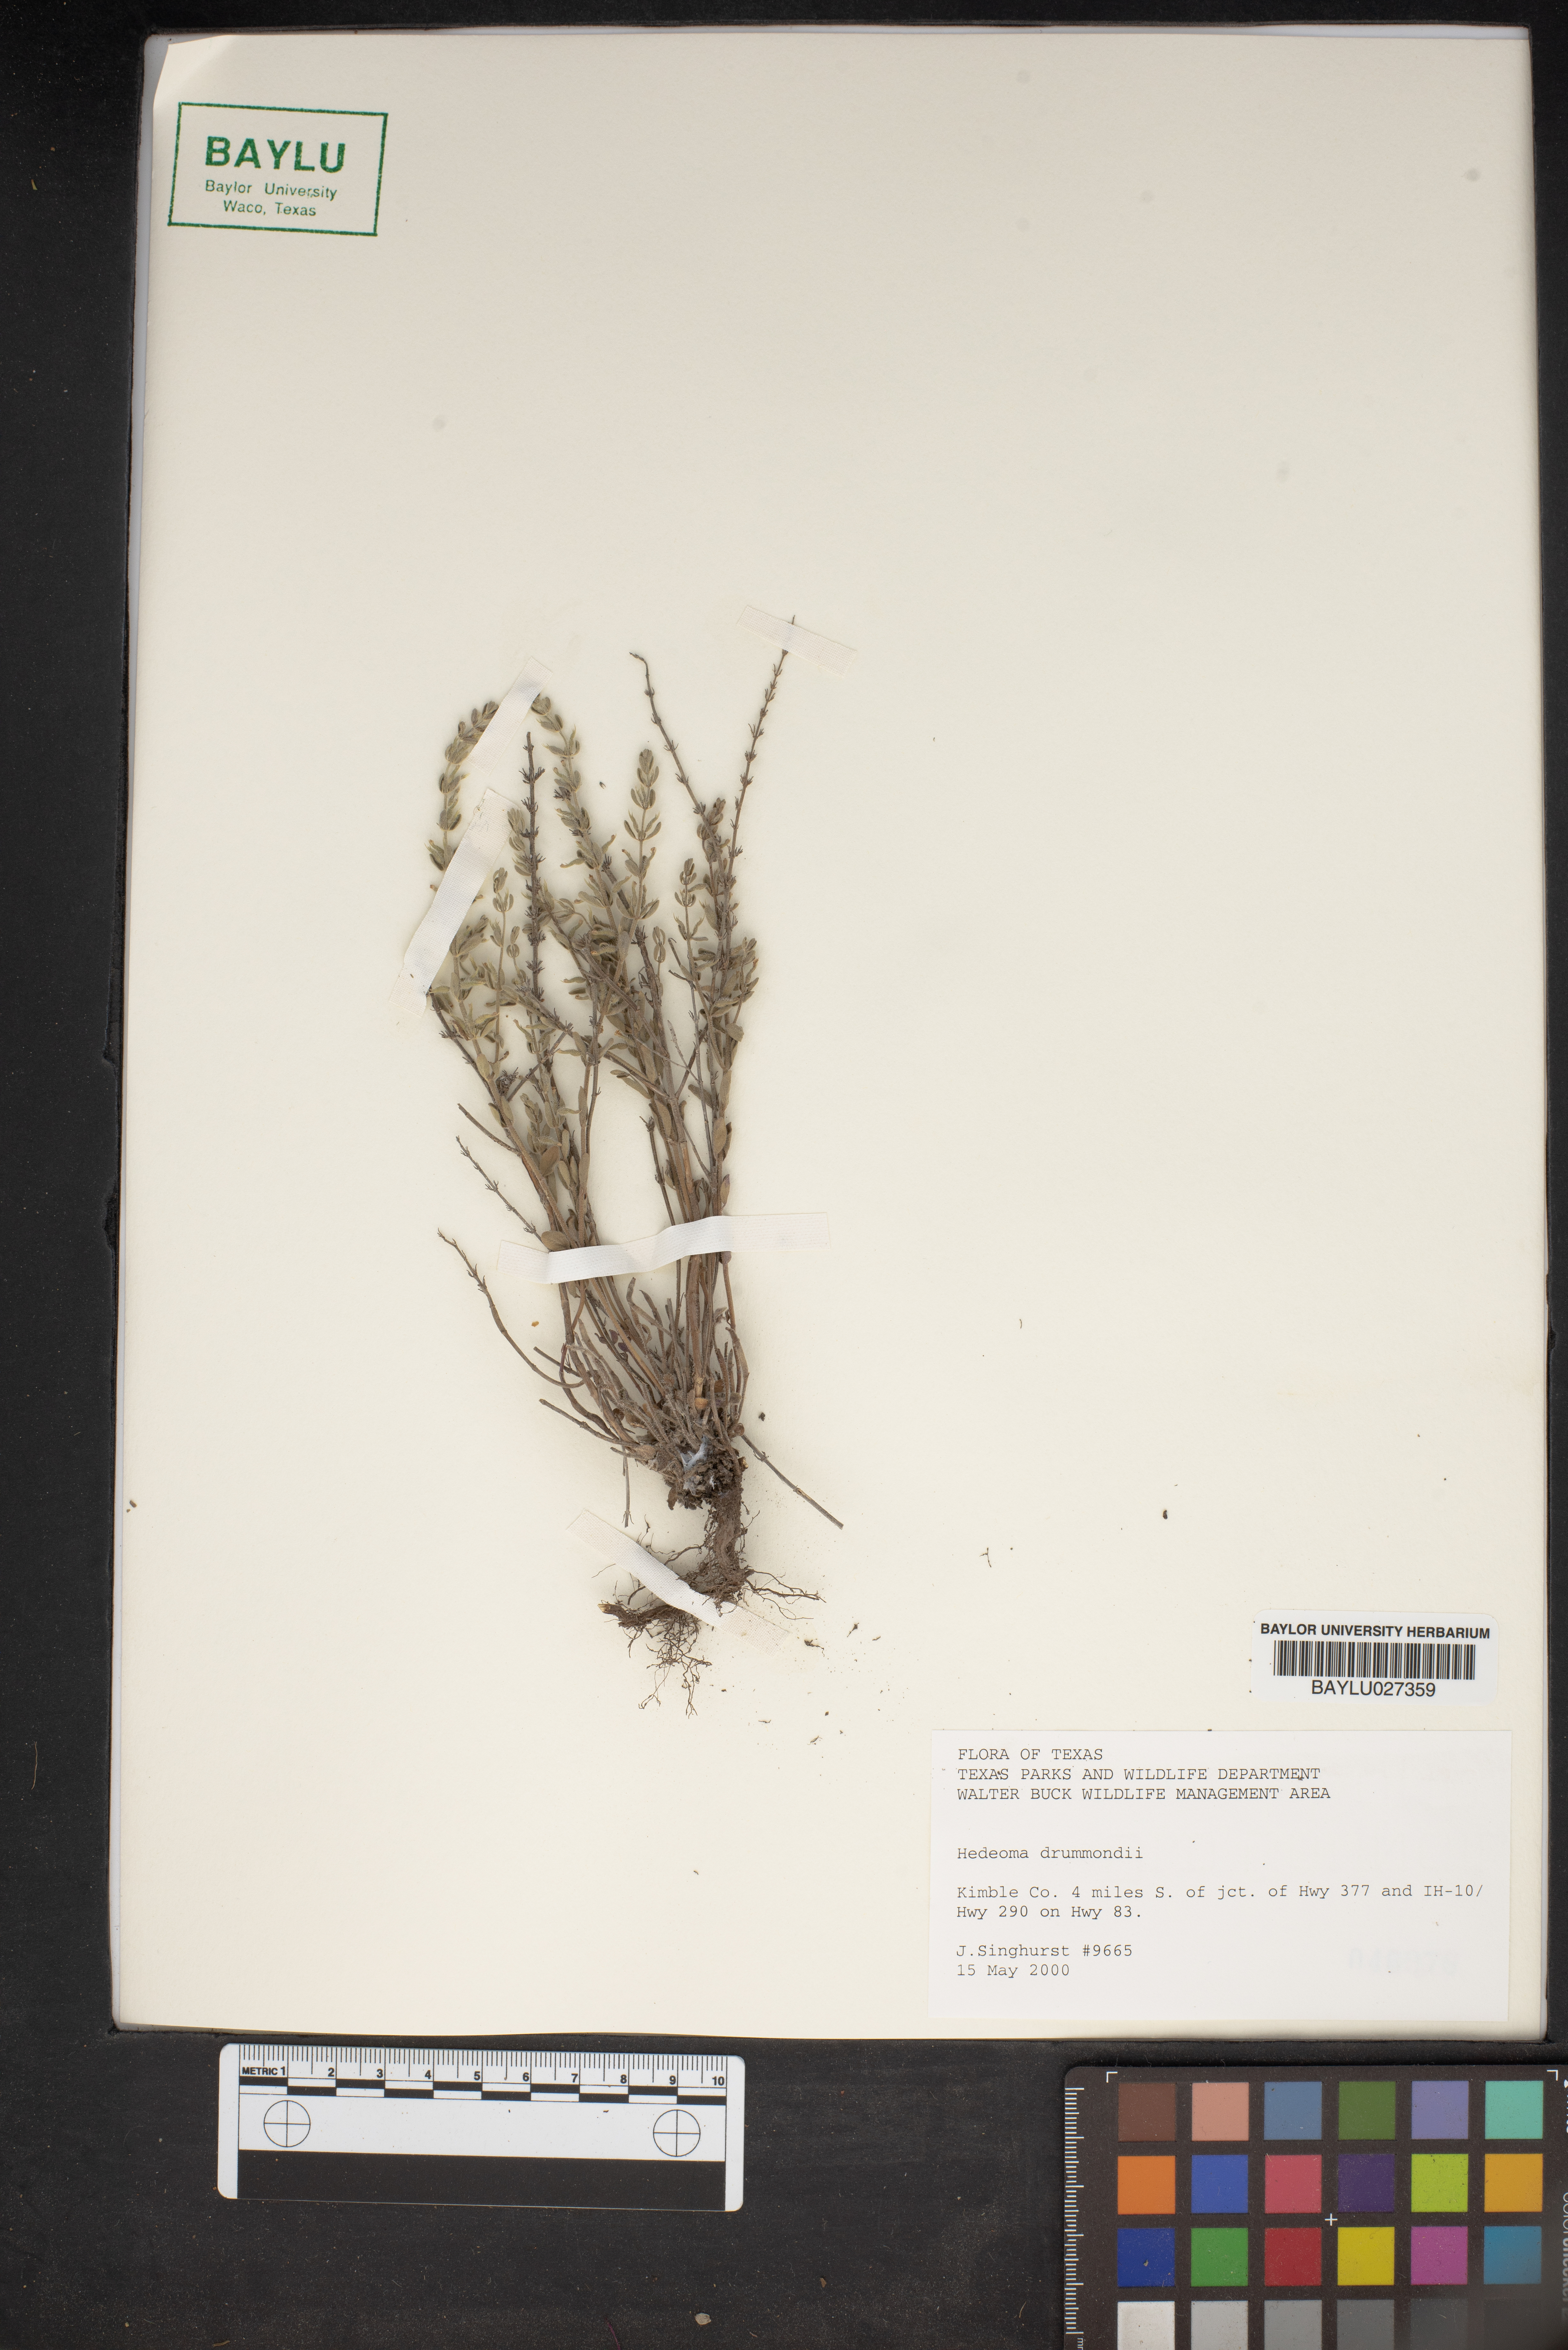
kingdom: Plantae
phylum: Tracheophyta
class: Magnoliopsida
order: Lamiales
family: Lamiaceae
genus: Hedeoma
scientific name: Hedeoma drummondii
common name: New mexico pennyroyal
